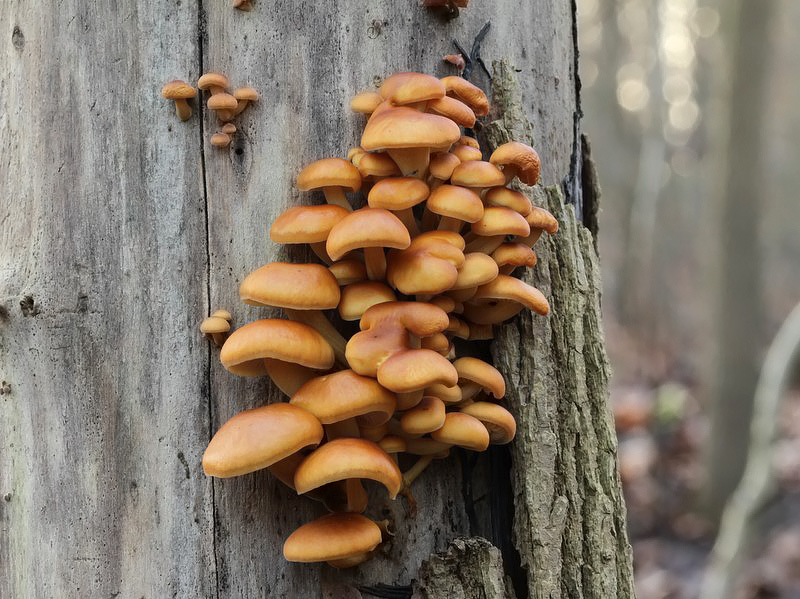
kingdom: Fungi
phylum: Basidiomycota
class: Agaricomycetes
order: Agaricales
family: Physalacriaceae
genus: Flammulina
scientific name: Flammulina velutipes
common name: gul fløjlsfod
